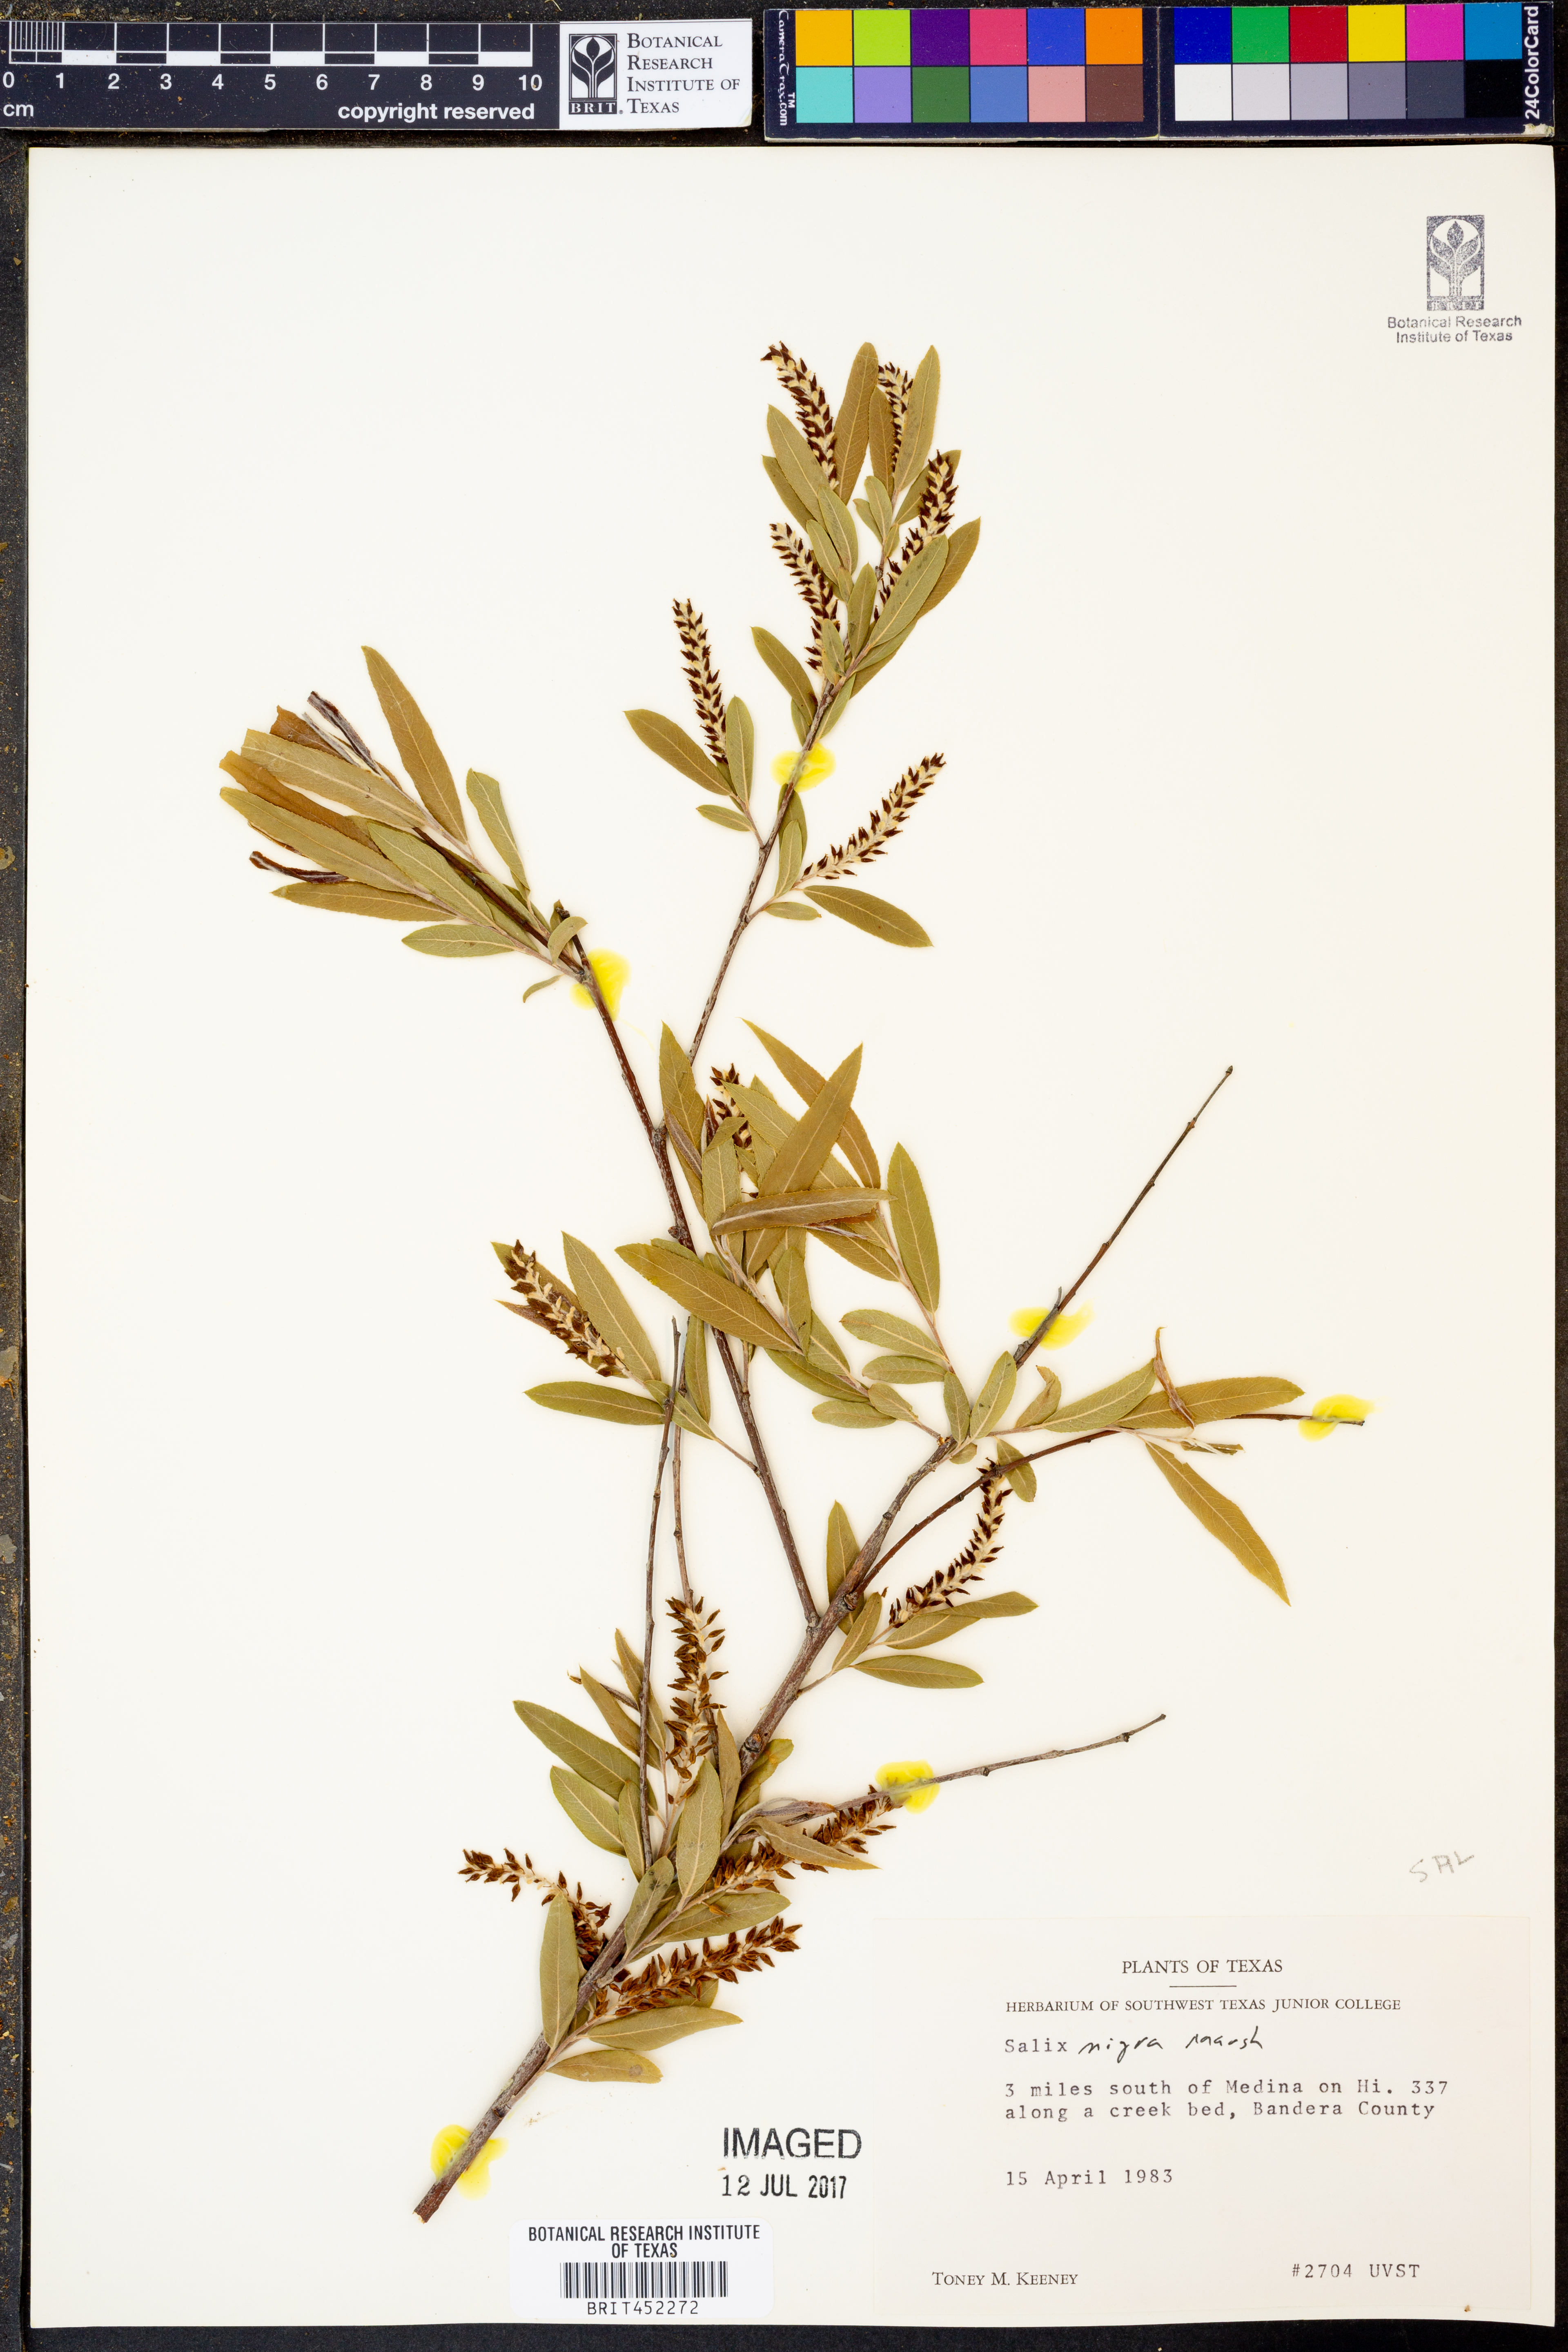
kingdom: Plantae
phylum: Tracheophyta
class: Magnoliopsida
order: Malpighiales
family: Salicaceae
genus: Salix
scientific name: Salix nigra
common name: Black willow
